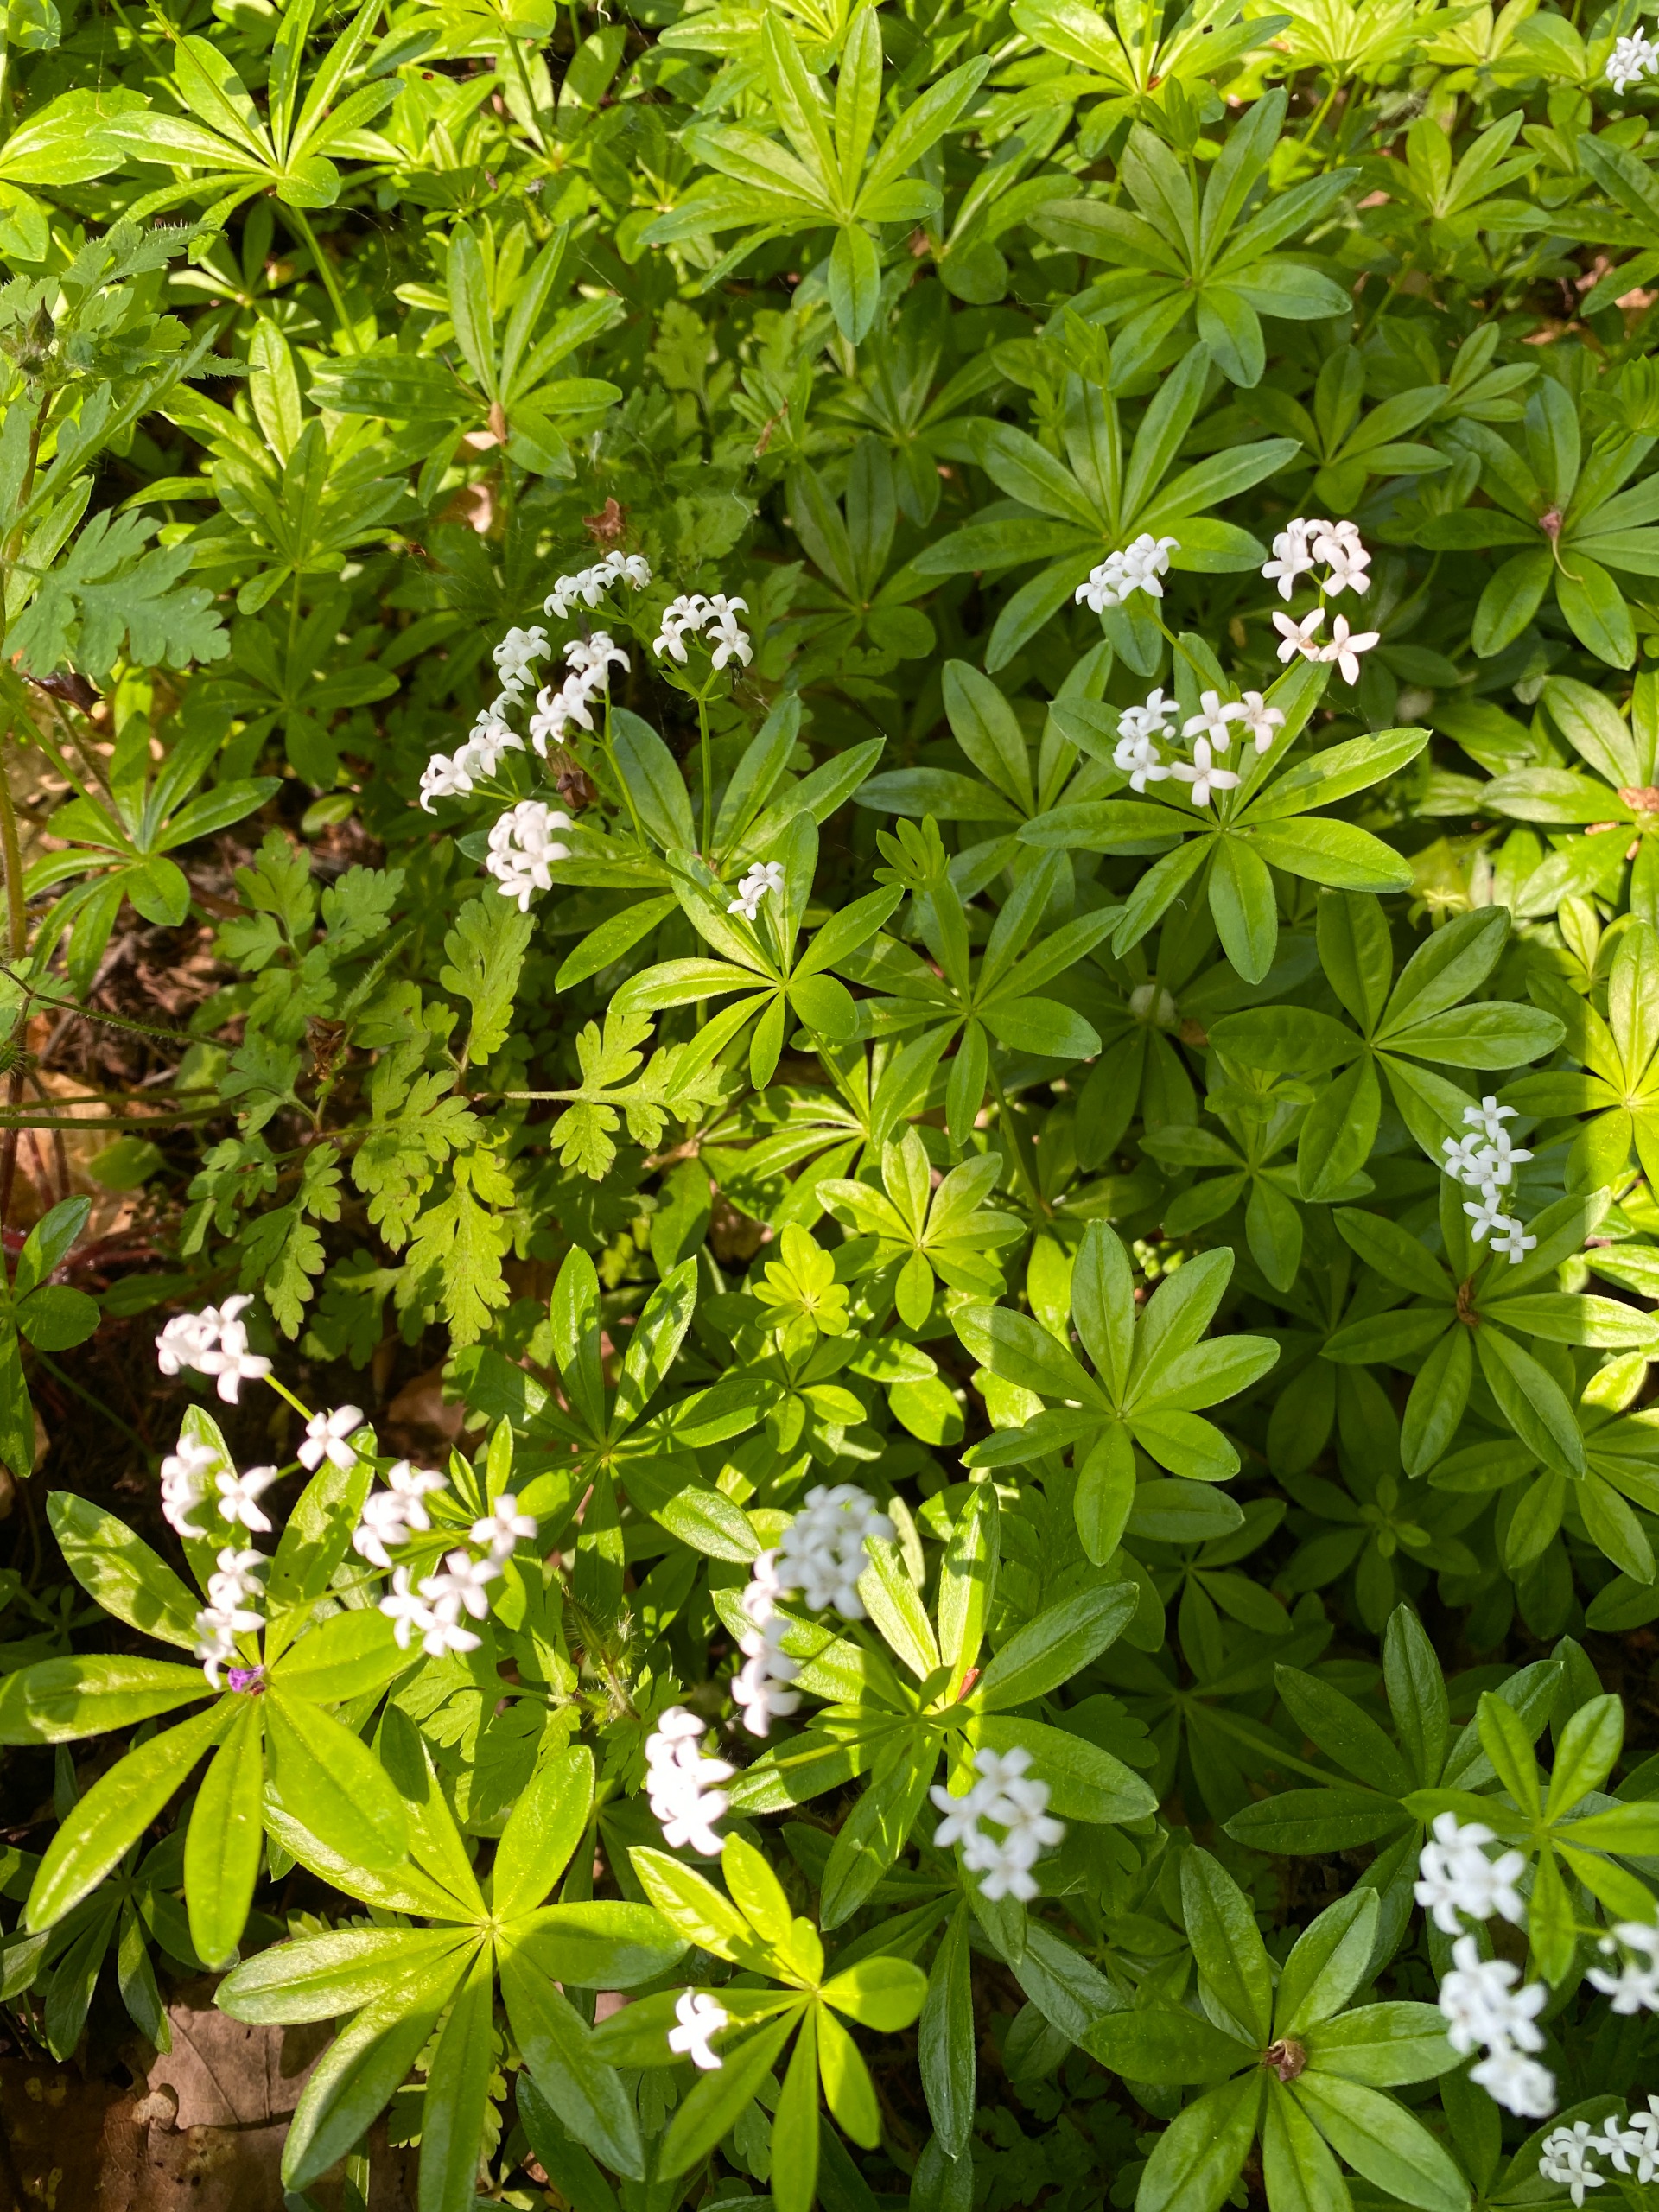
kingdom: Plantae
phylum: Tracheophyta
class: Magnoliopsida
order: Gentianales
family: Rubiaceae
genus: Galium
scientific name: Galium odoratum
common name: Skovmærke
